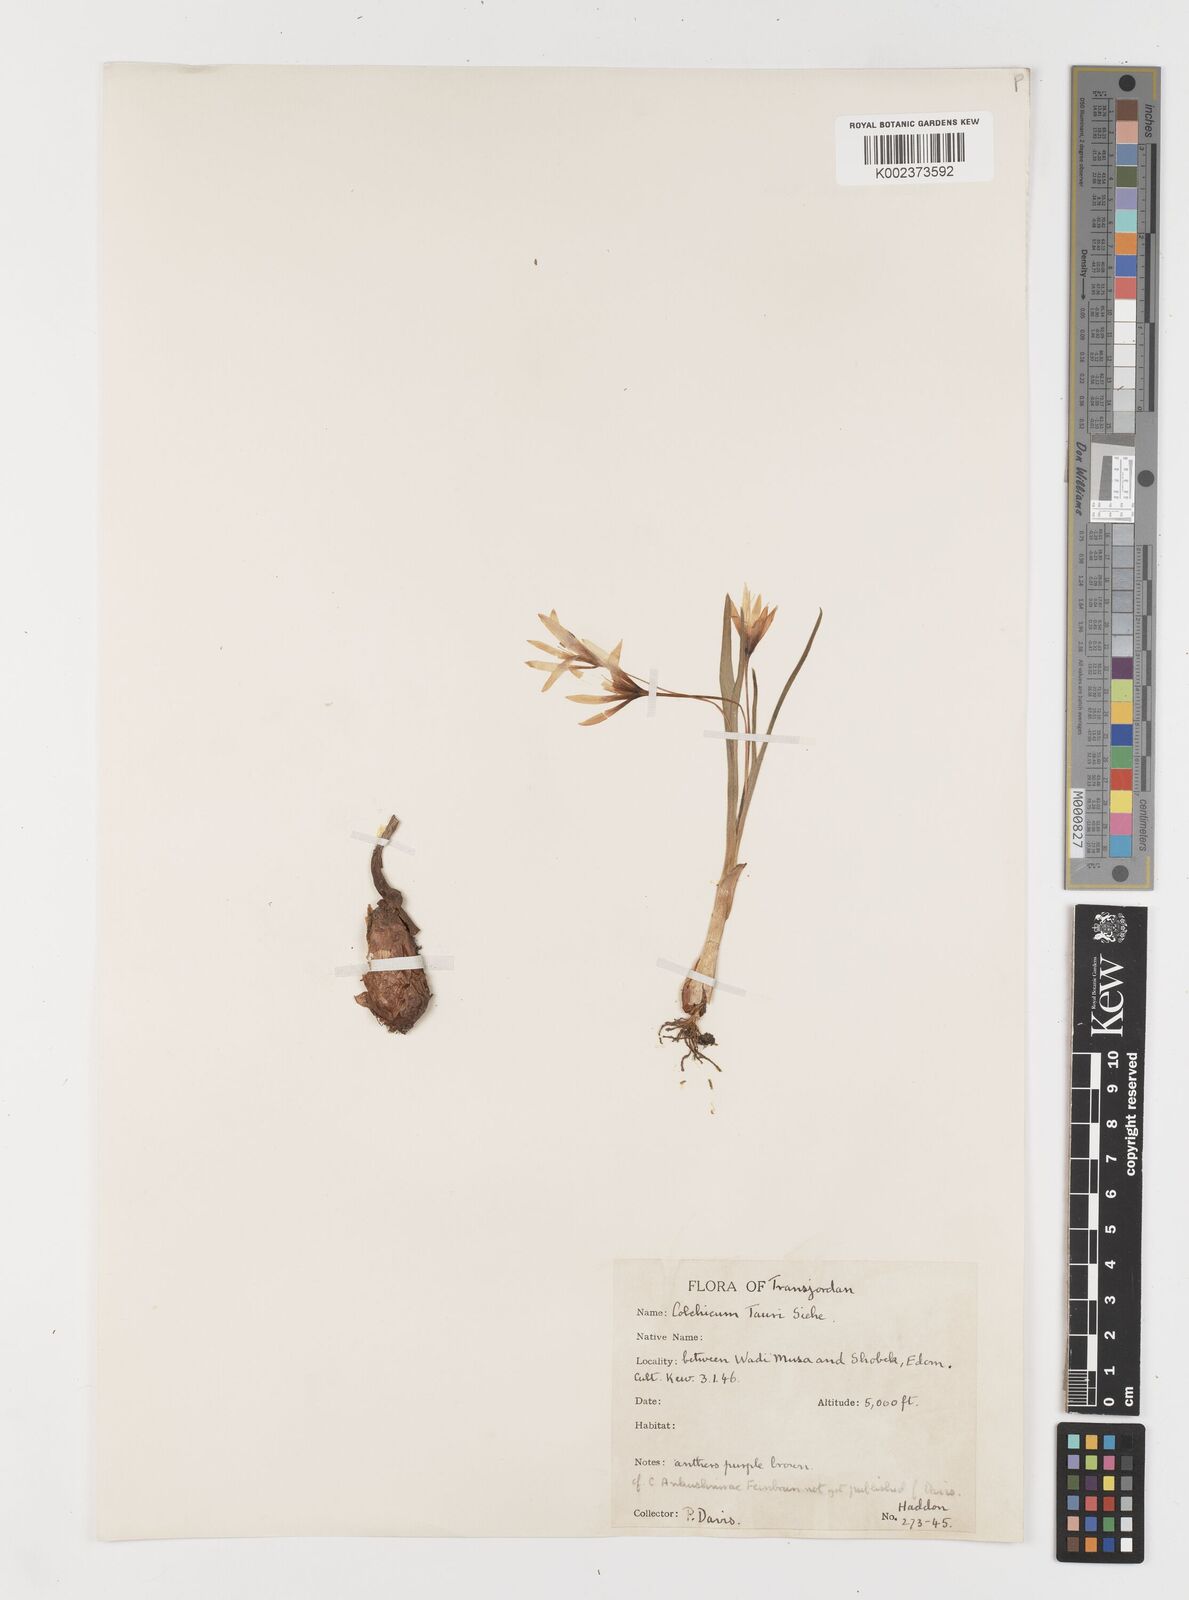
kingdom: Plantae
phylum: Tracheophyta
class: Liliopsida
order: Liliales
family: Colchicaceae
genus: Colchicum
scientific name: Colchicum serpentinum
